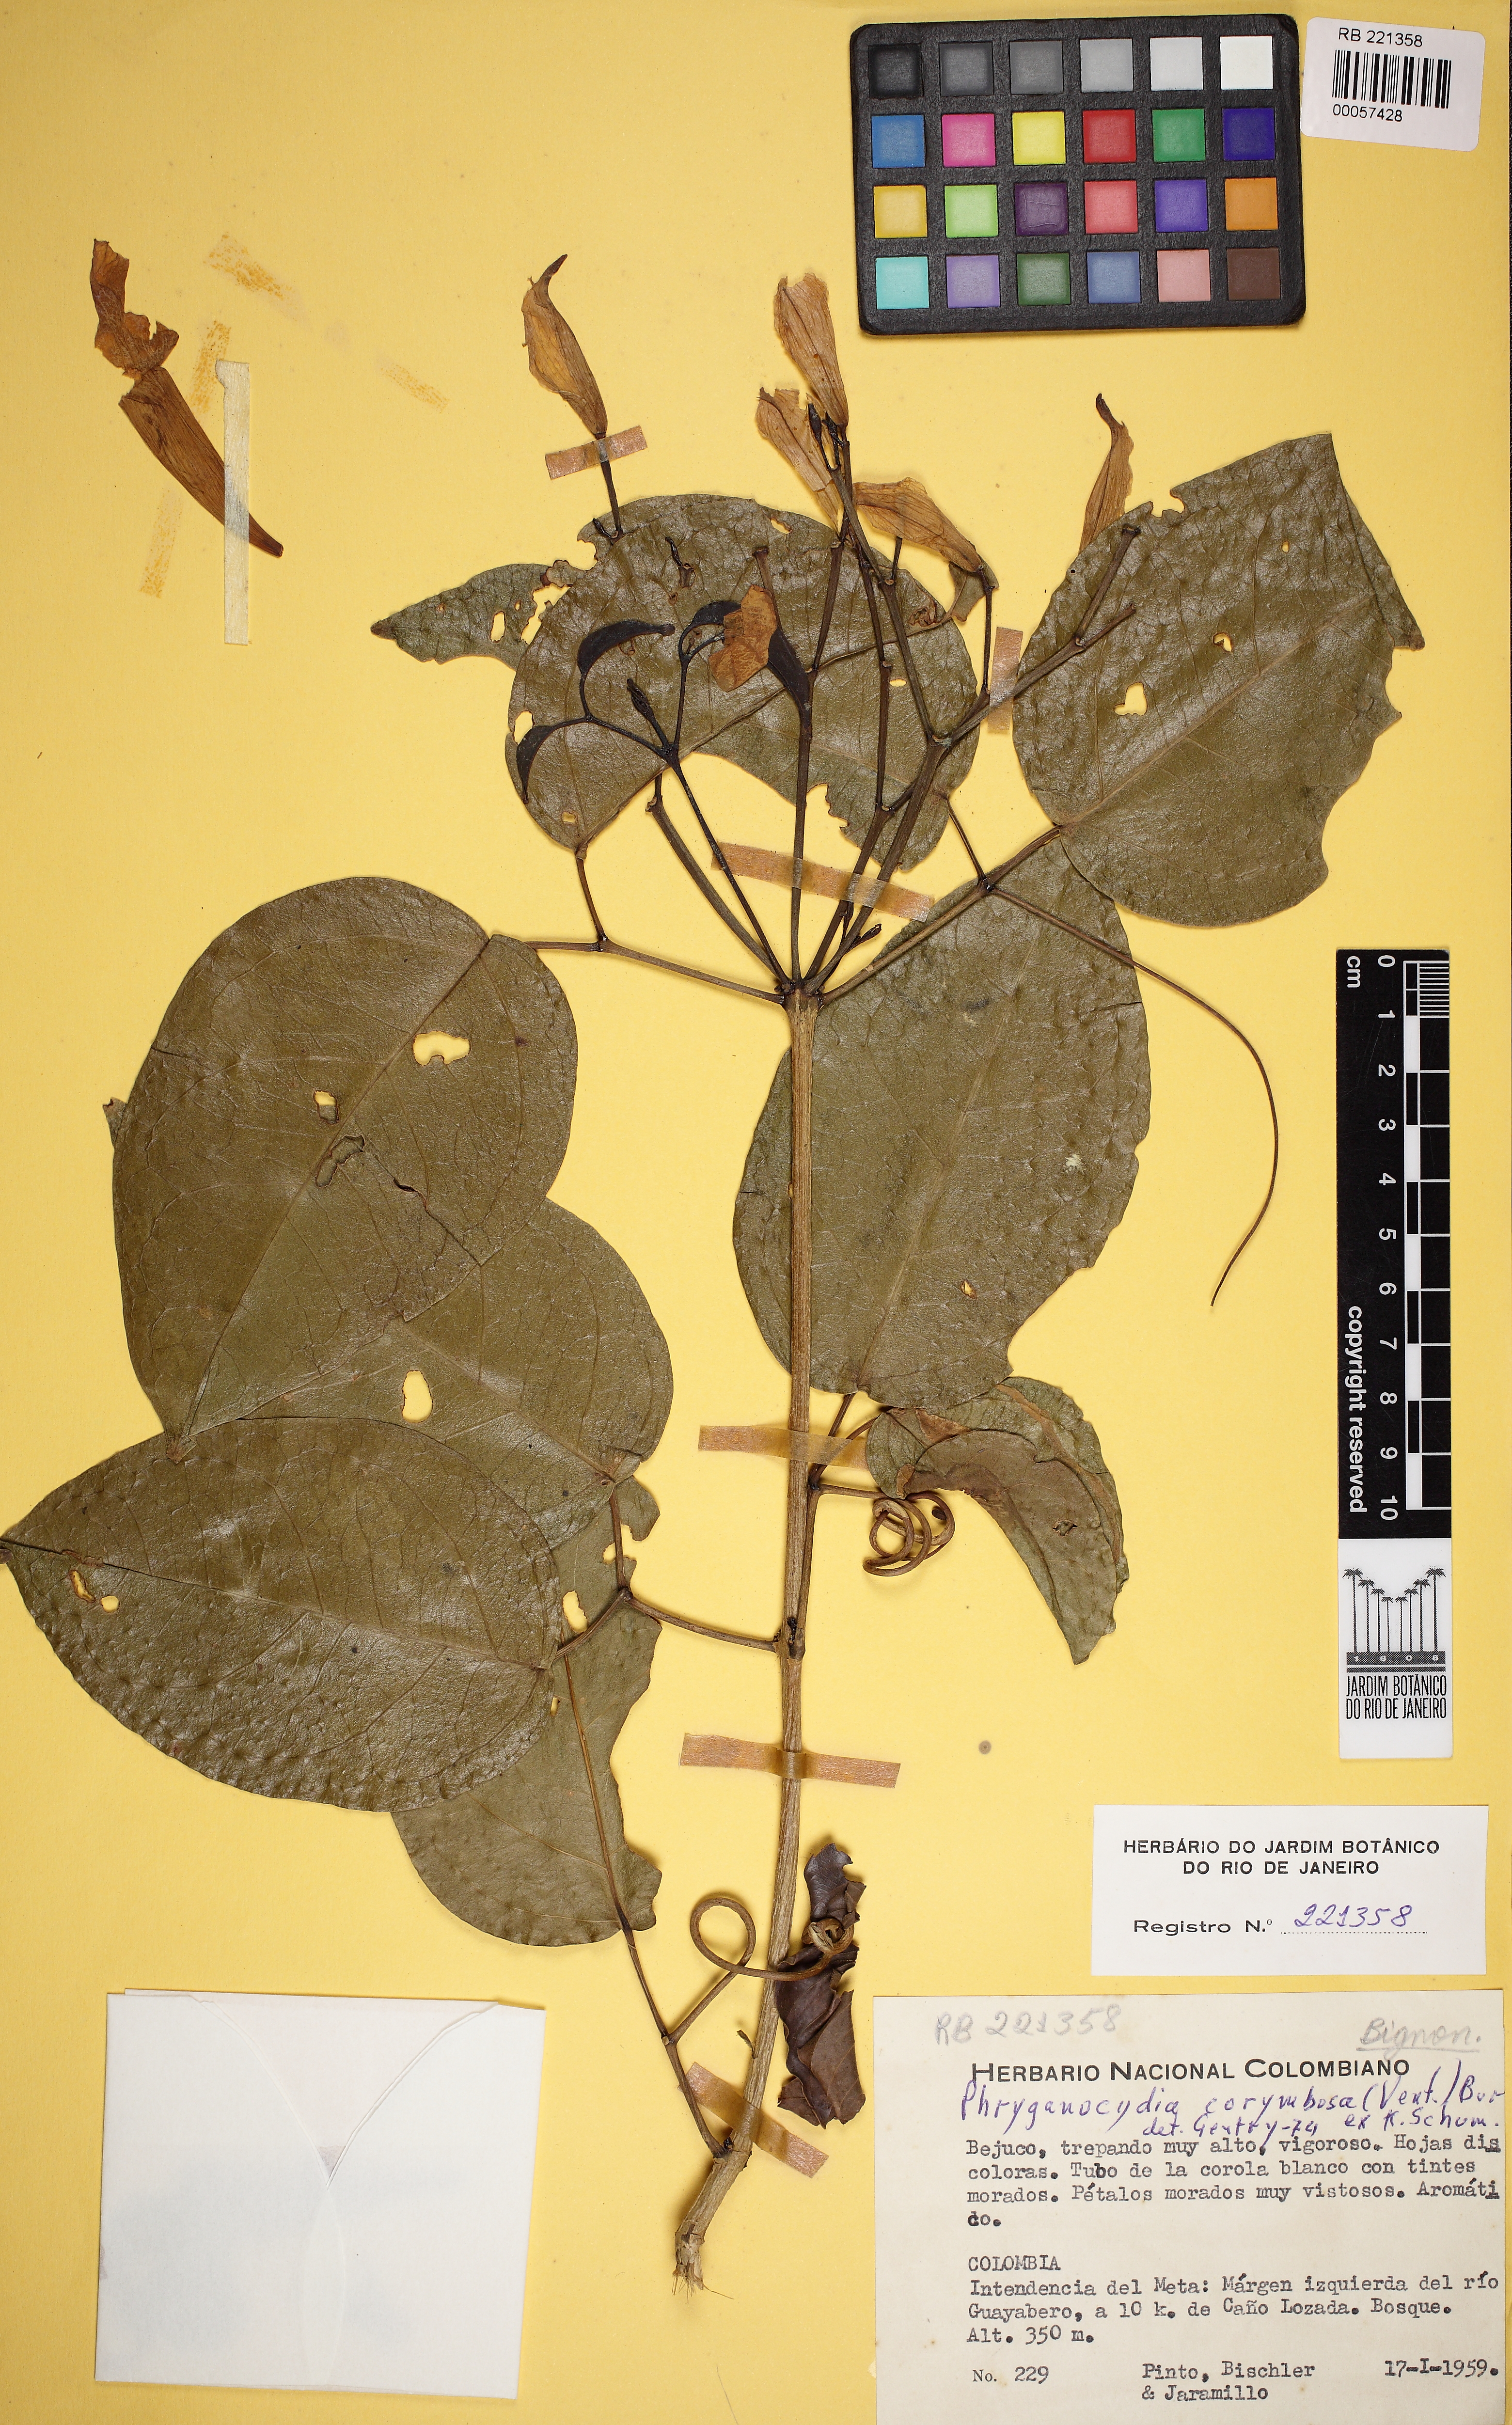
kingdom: Plantae
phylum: Tracheophyta
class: Magnoliopsida
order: Lamiales
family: Bignoniaceae
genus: Bignonia
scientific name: Bignonia corymbosa
